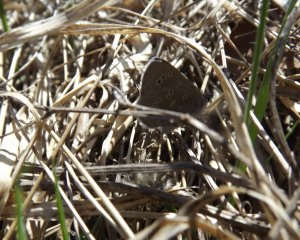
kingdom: Animalia
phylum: Arthropoda
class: Insecta
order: Lepidoptera
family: Lycaenidae
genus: Glaucopsyche
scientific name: Glaucopsyche lygdamus
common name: Silvery Blue
